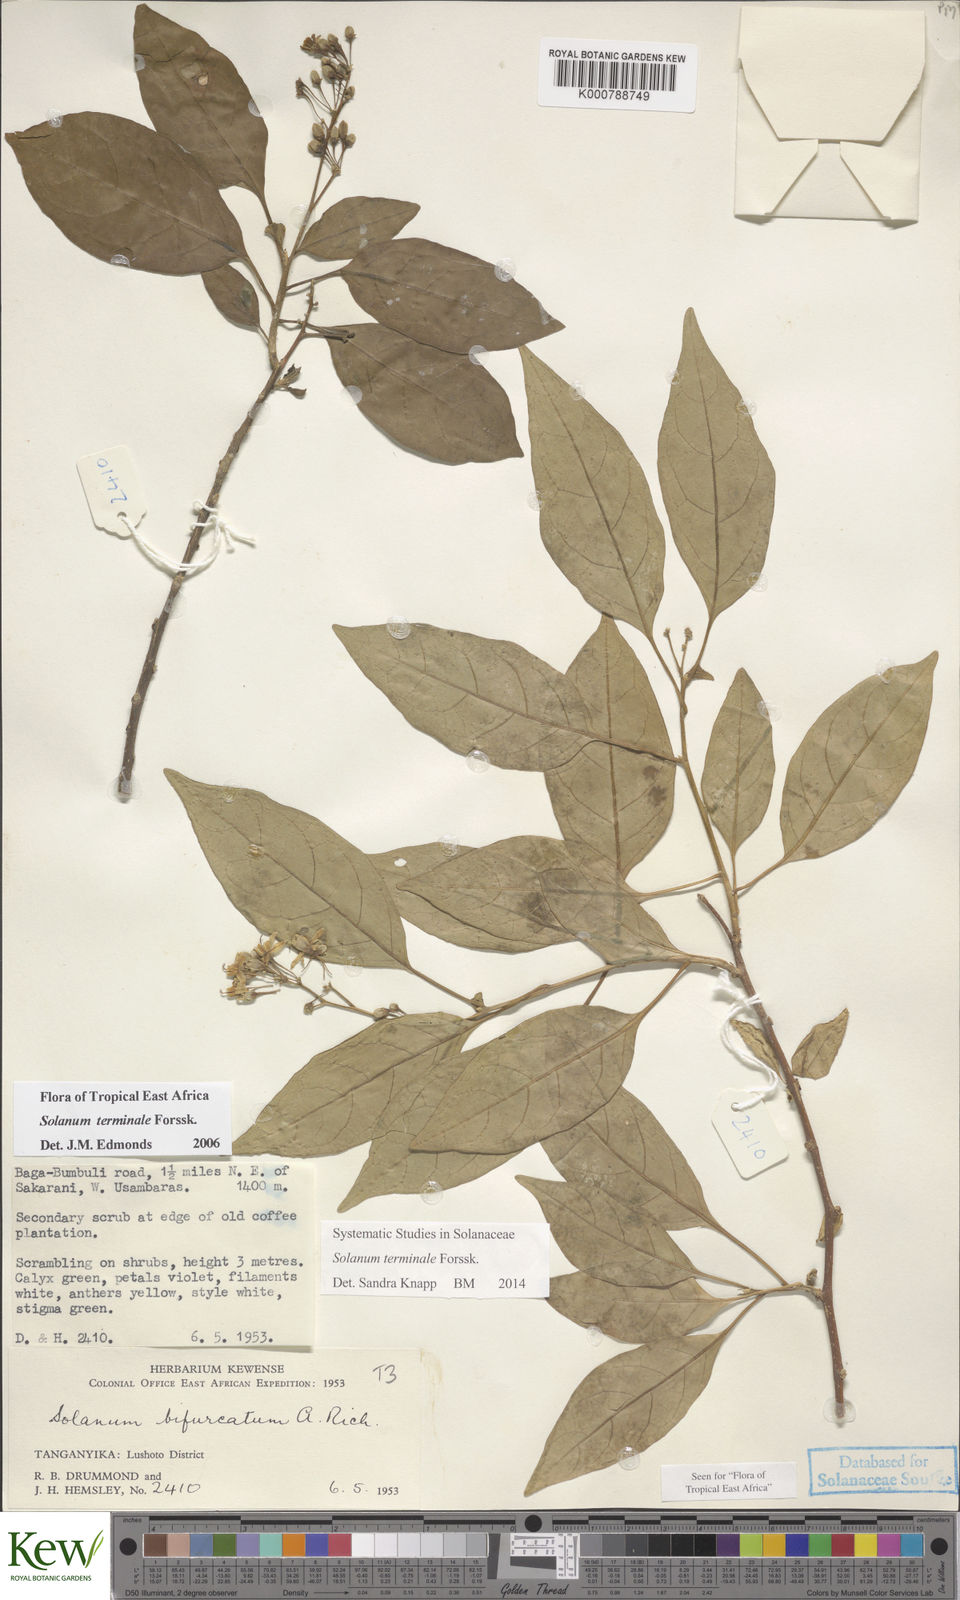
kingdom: Plantae
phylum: Tracheophyta
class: Magnoliopsida
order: Solanales
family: Solanaceae
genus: Solanum
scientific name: Solanum terminale
